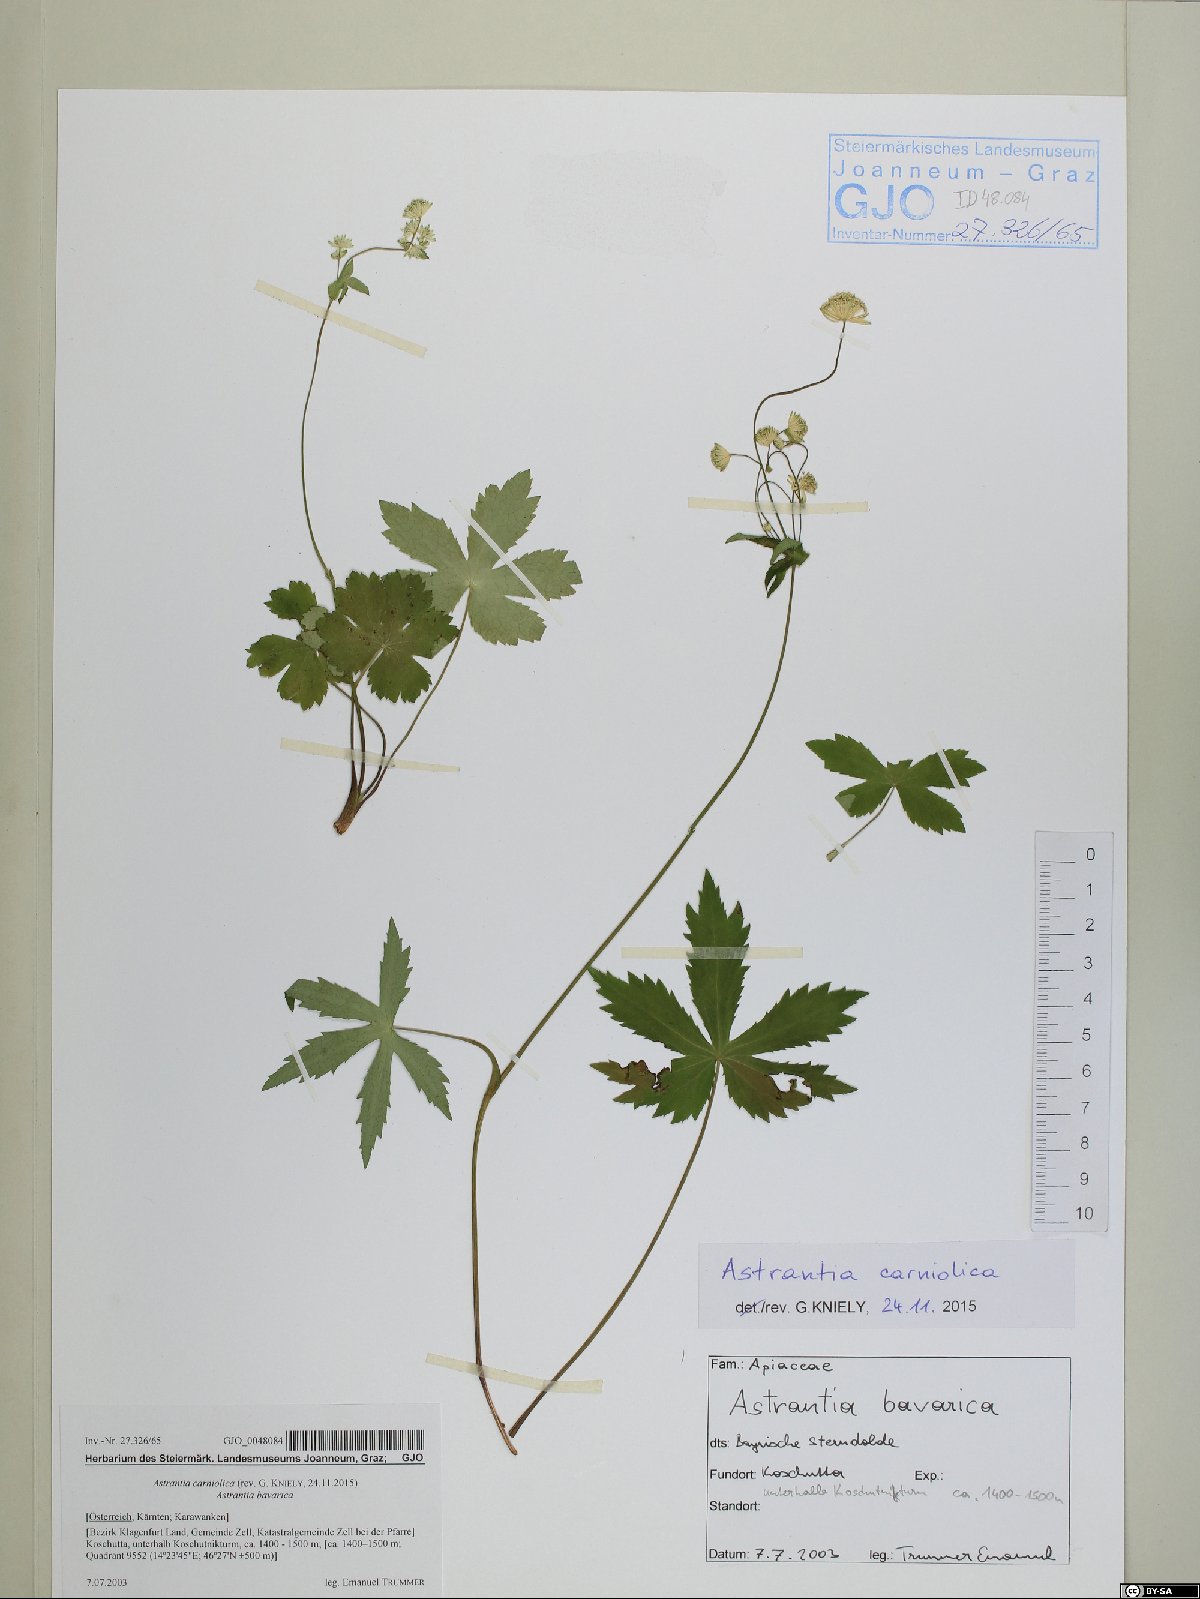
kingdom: Plantae
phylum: Tracheophyta
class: Magnoliopsida
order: Apiales
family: Apiaceae
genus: Astrantia
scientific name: Astrantia carniolica
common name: Carnic masterwort
